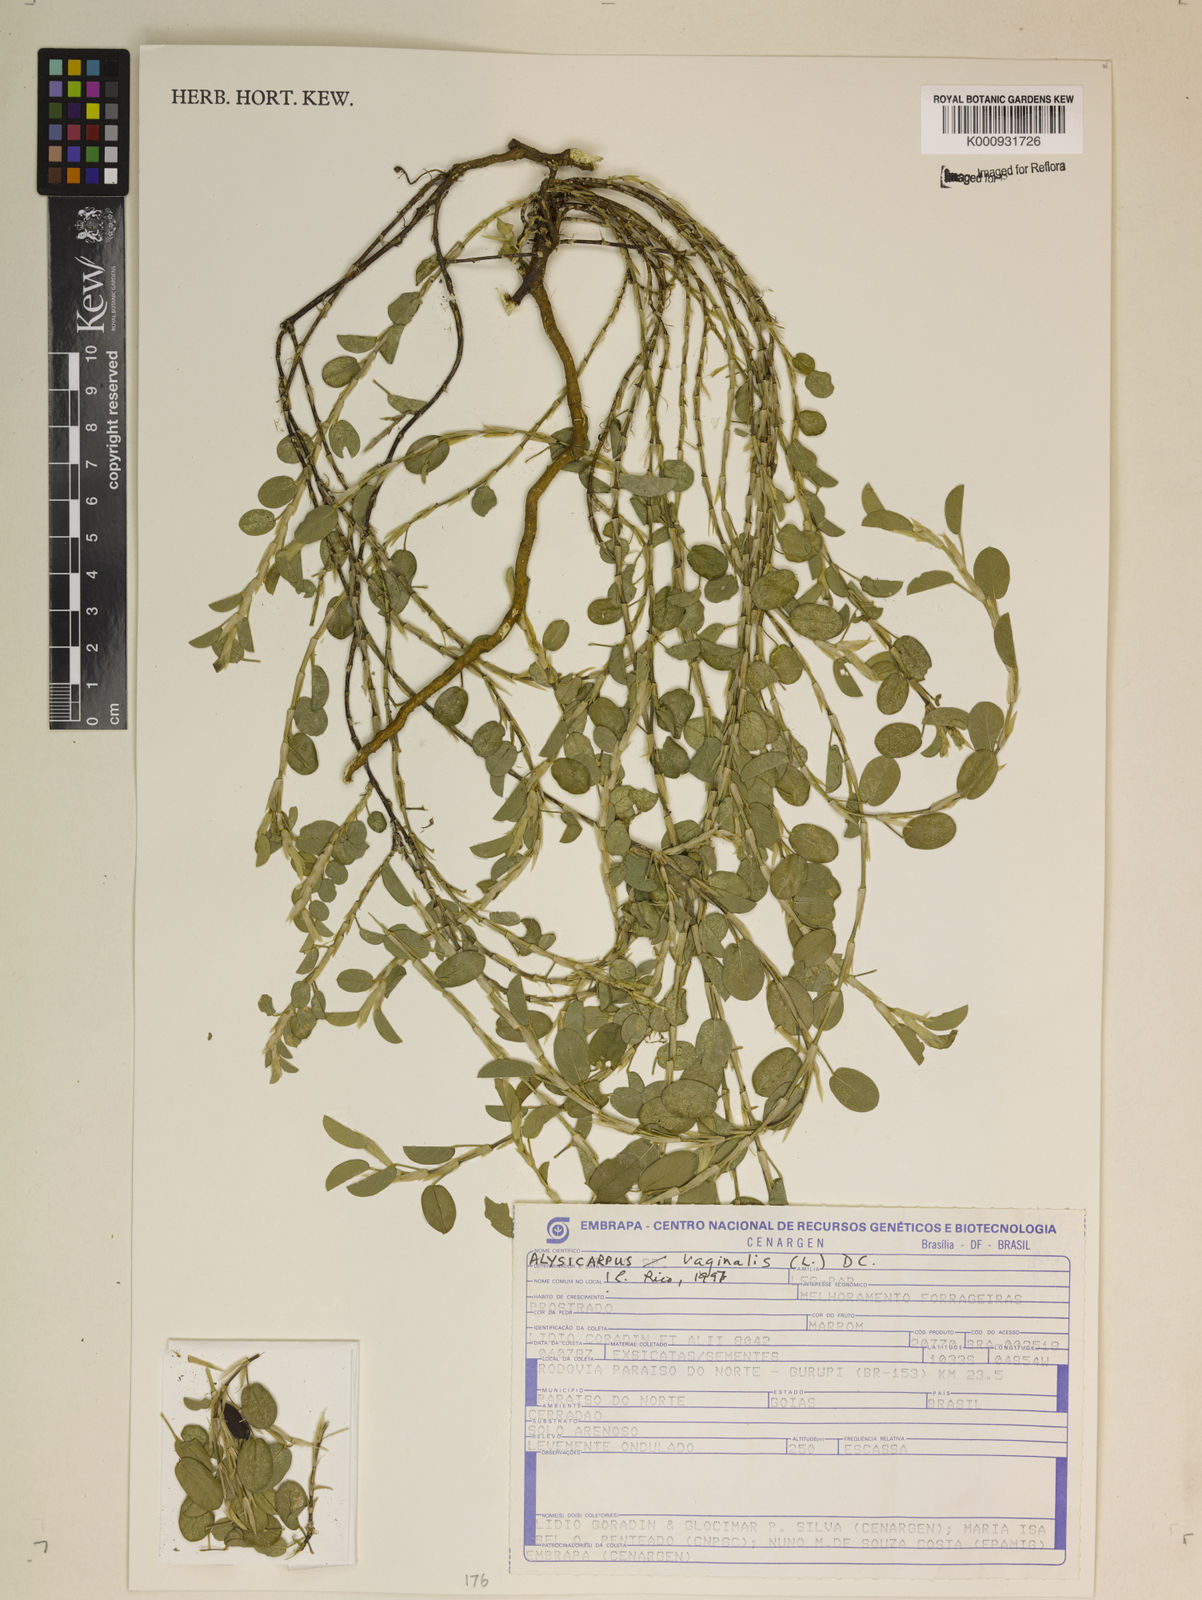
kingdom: Plantae
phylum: Tracheophyta
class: Magnoliopsida
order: Fabales
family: Fabaceae
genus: Alysicarpus
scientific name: Alysicarpus vaginalis
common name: White moneywort
